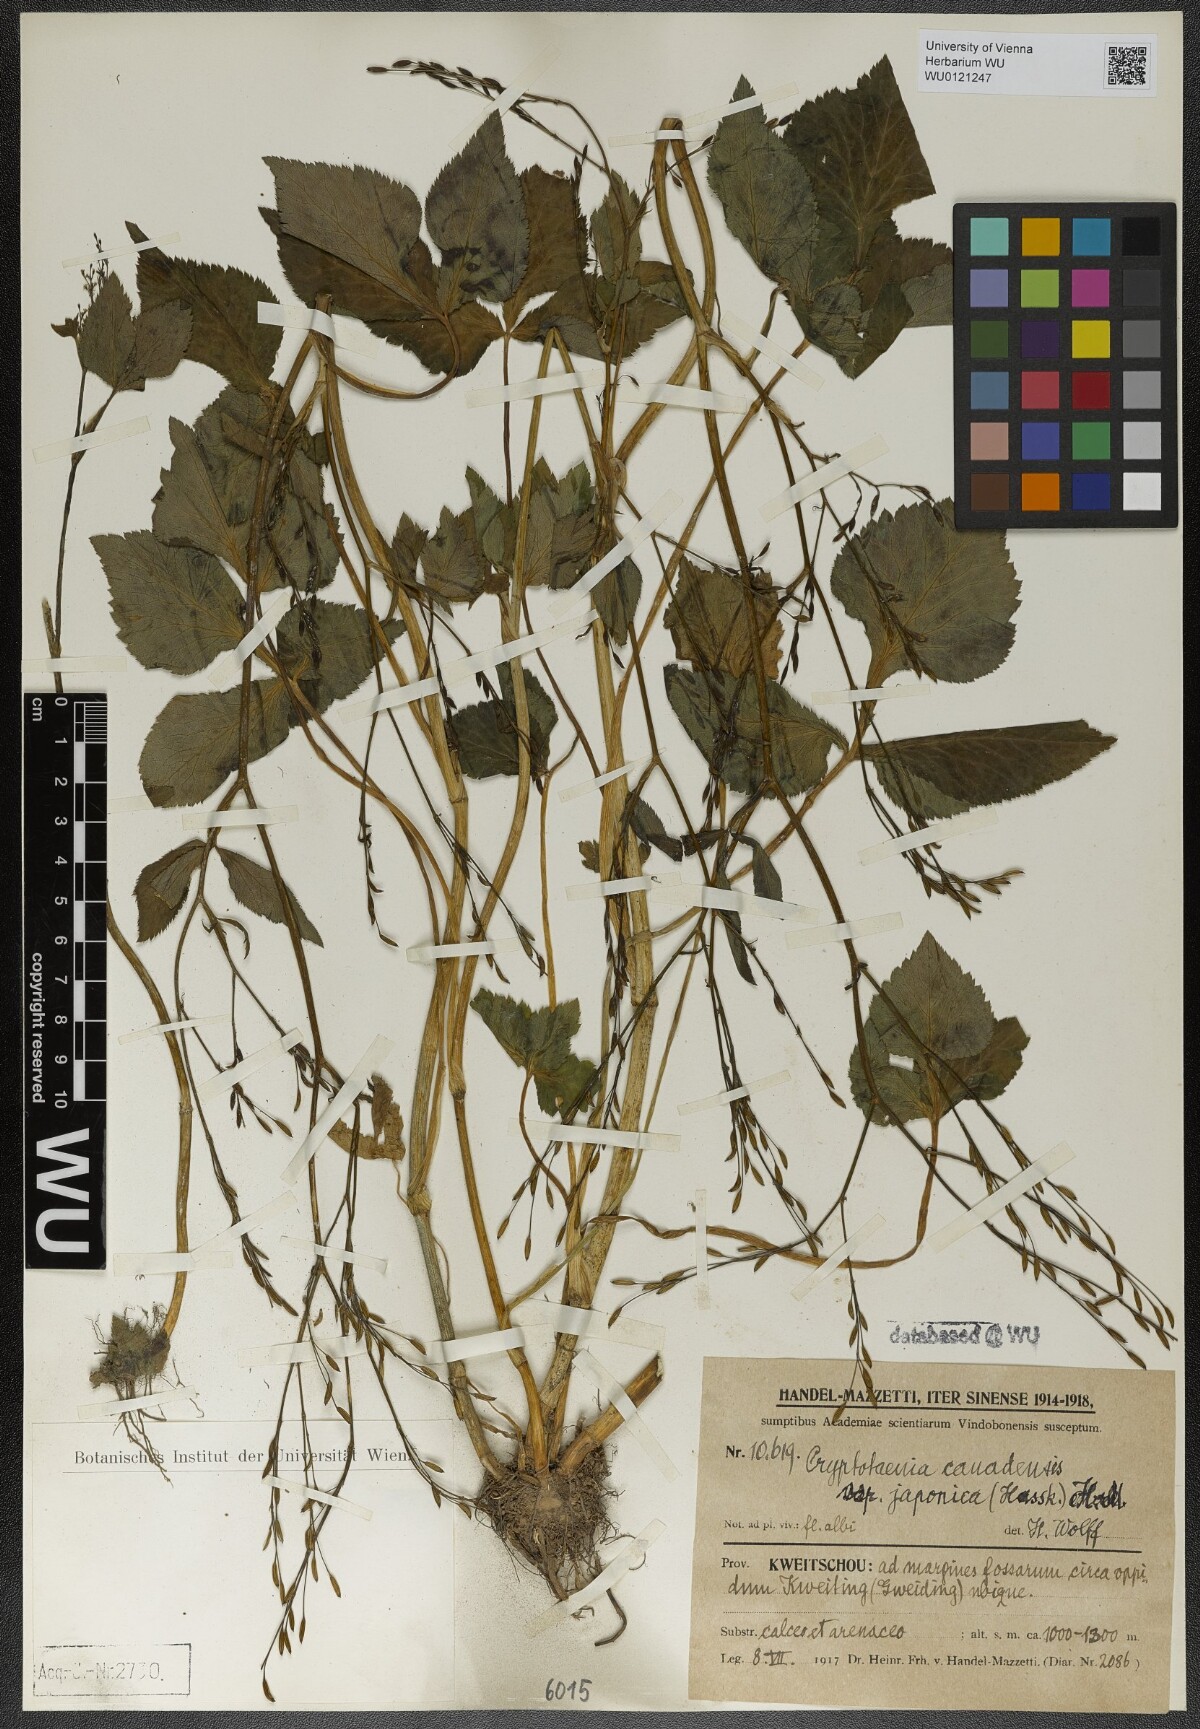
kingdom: Plantae
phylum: Tracheophyta
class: Magnoliopsida
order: Apiales
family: Apiaceae
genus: Cryptotaenia
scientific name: Cryptotaenia japonica
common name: Japanese cryptotaenia
